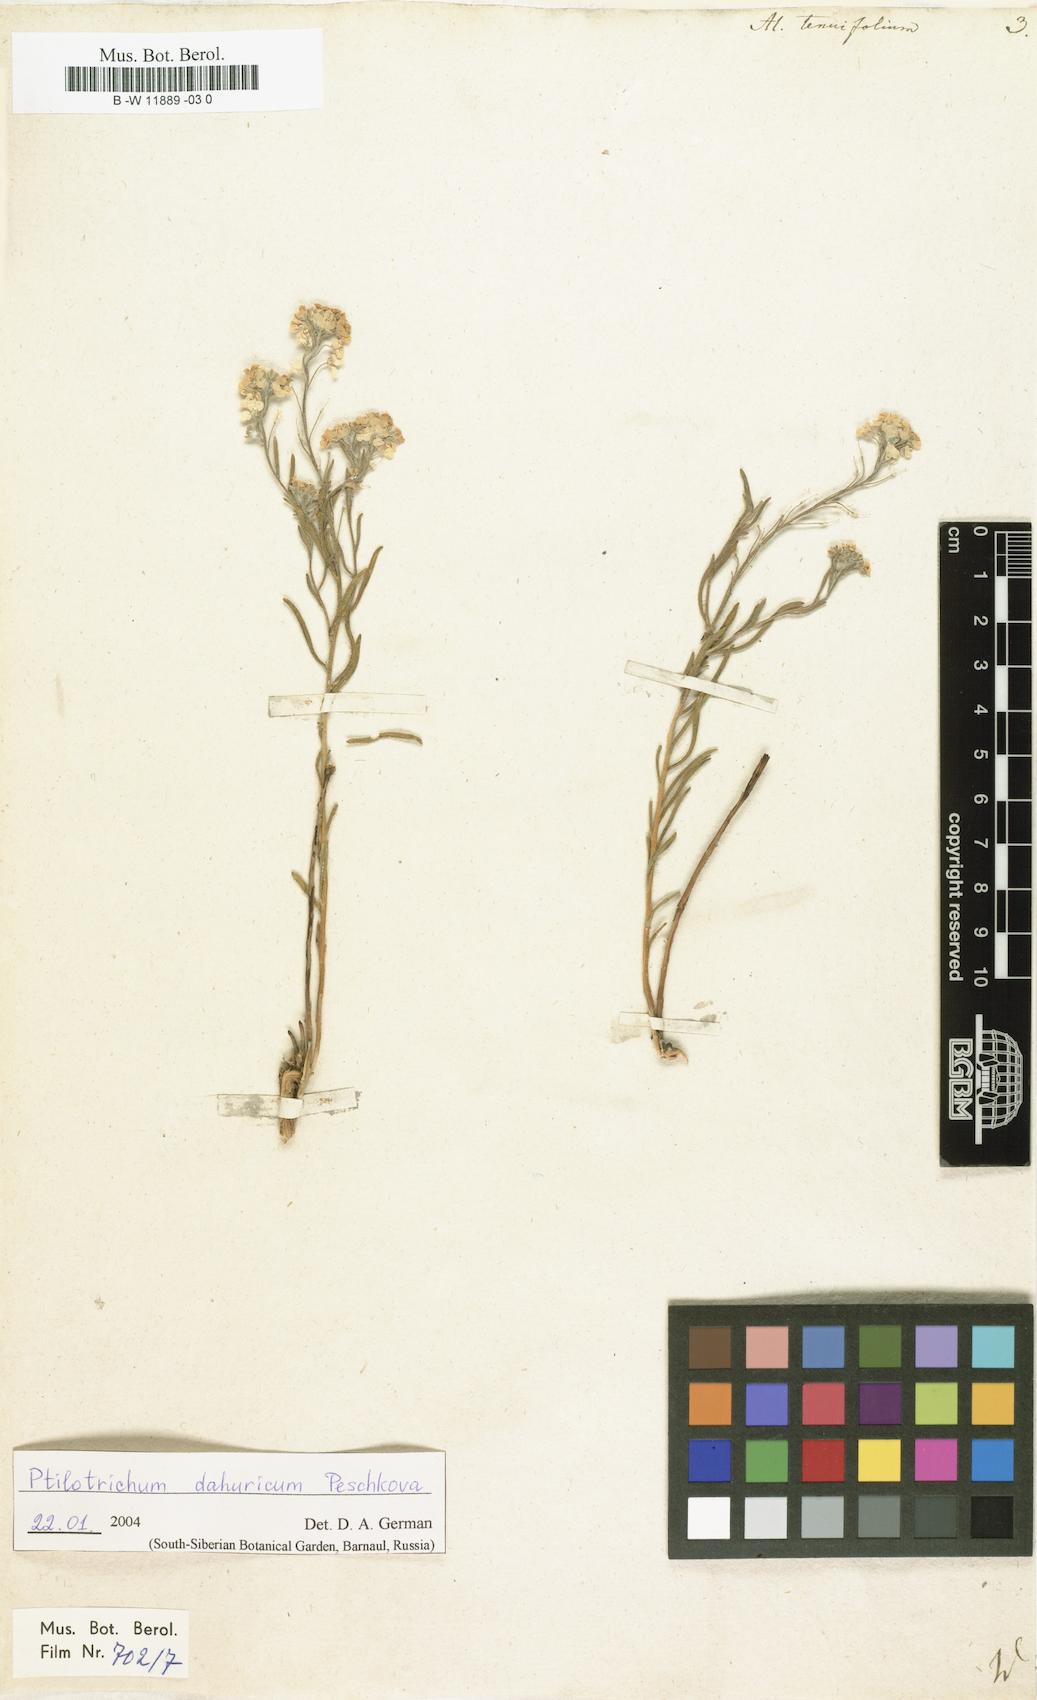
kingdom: Plantae
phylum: Tracheophyta
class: Magnoliopsida
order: Brassicales
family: Brassicaceae
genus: Stevenia
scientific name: Stevenia tenuifolia
